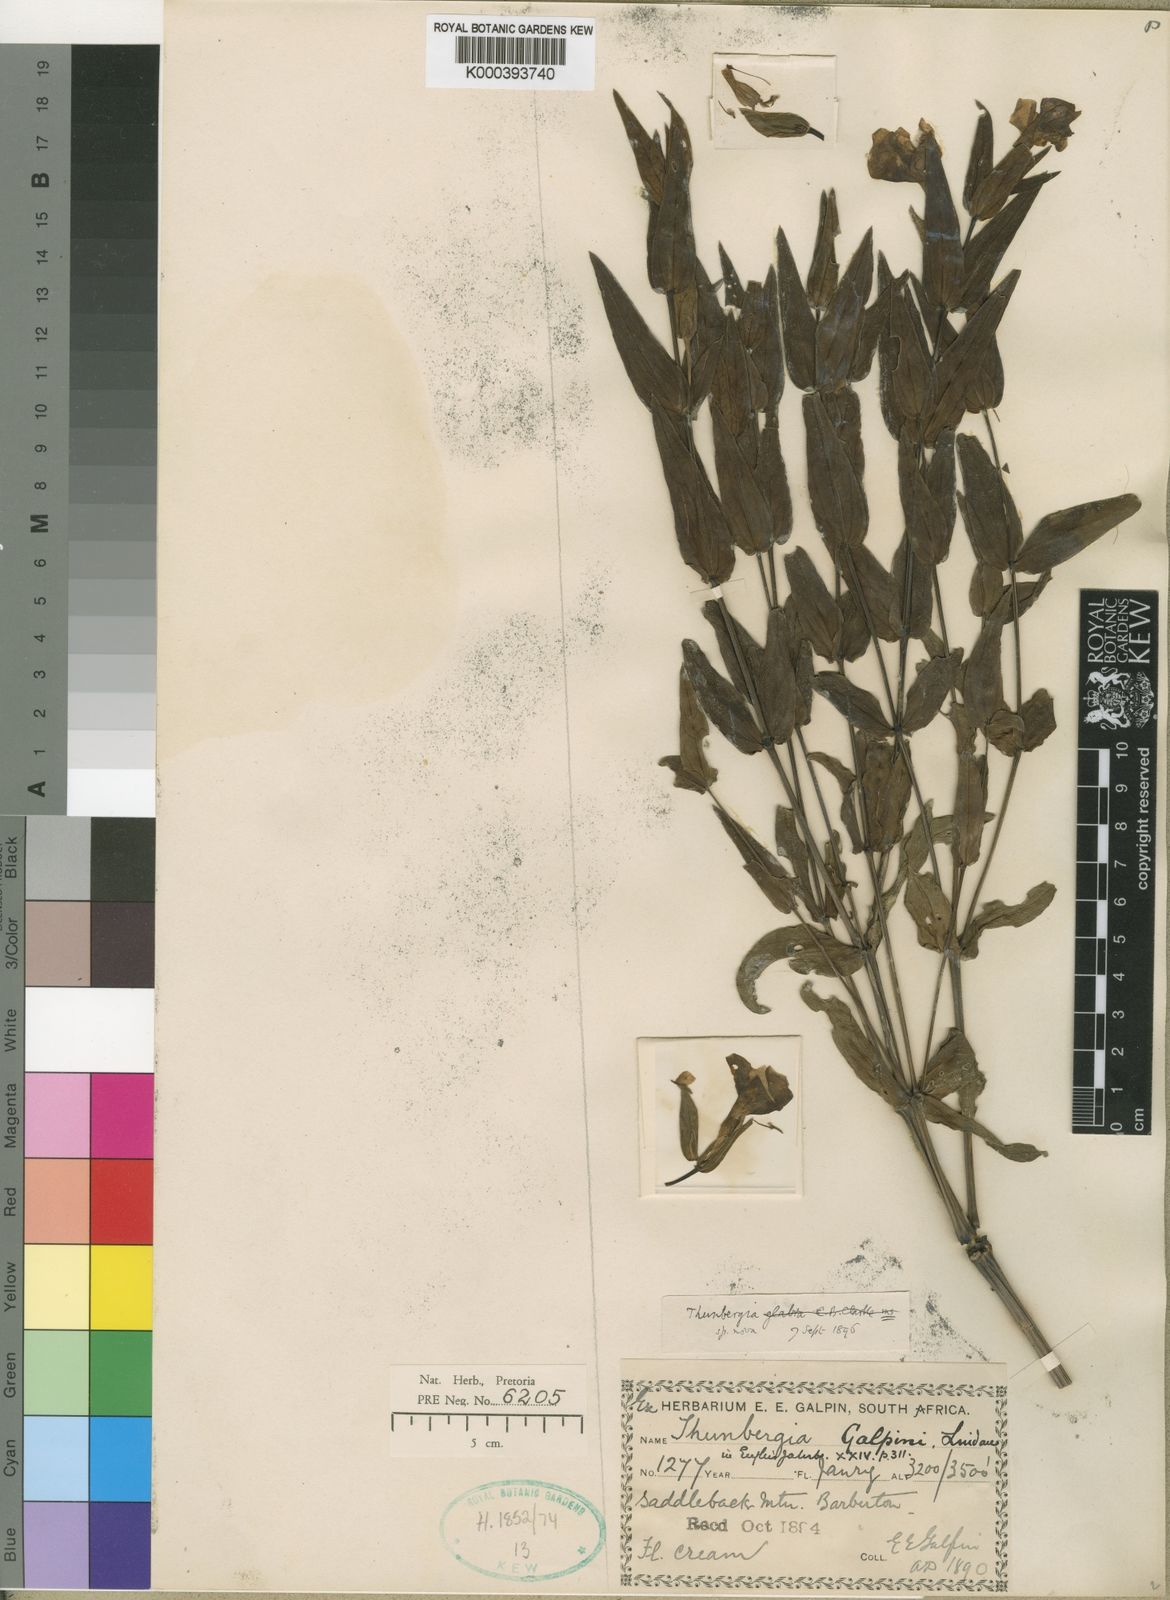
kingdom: Plantae
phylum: Tracheophyta
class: Magnoliopsida
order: Lamiales
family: Acanthaceae
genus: Thunbergia
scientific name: Thunbergia atriplicifolia
